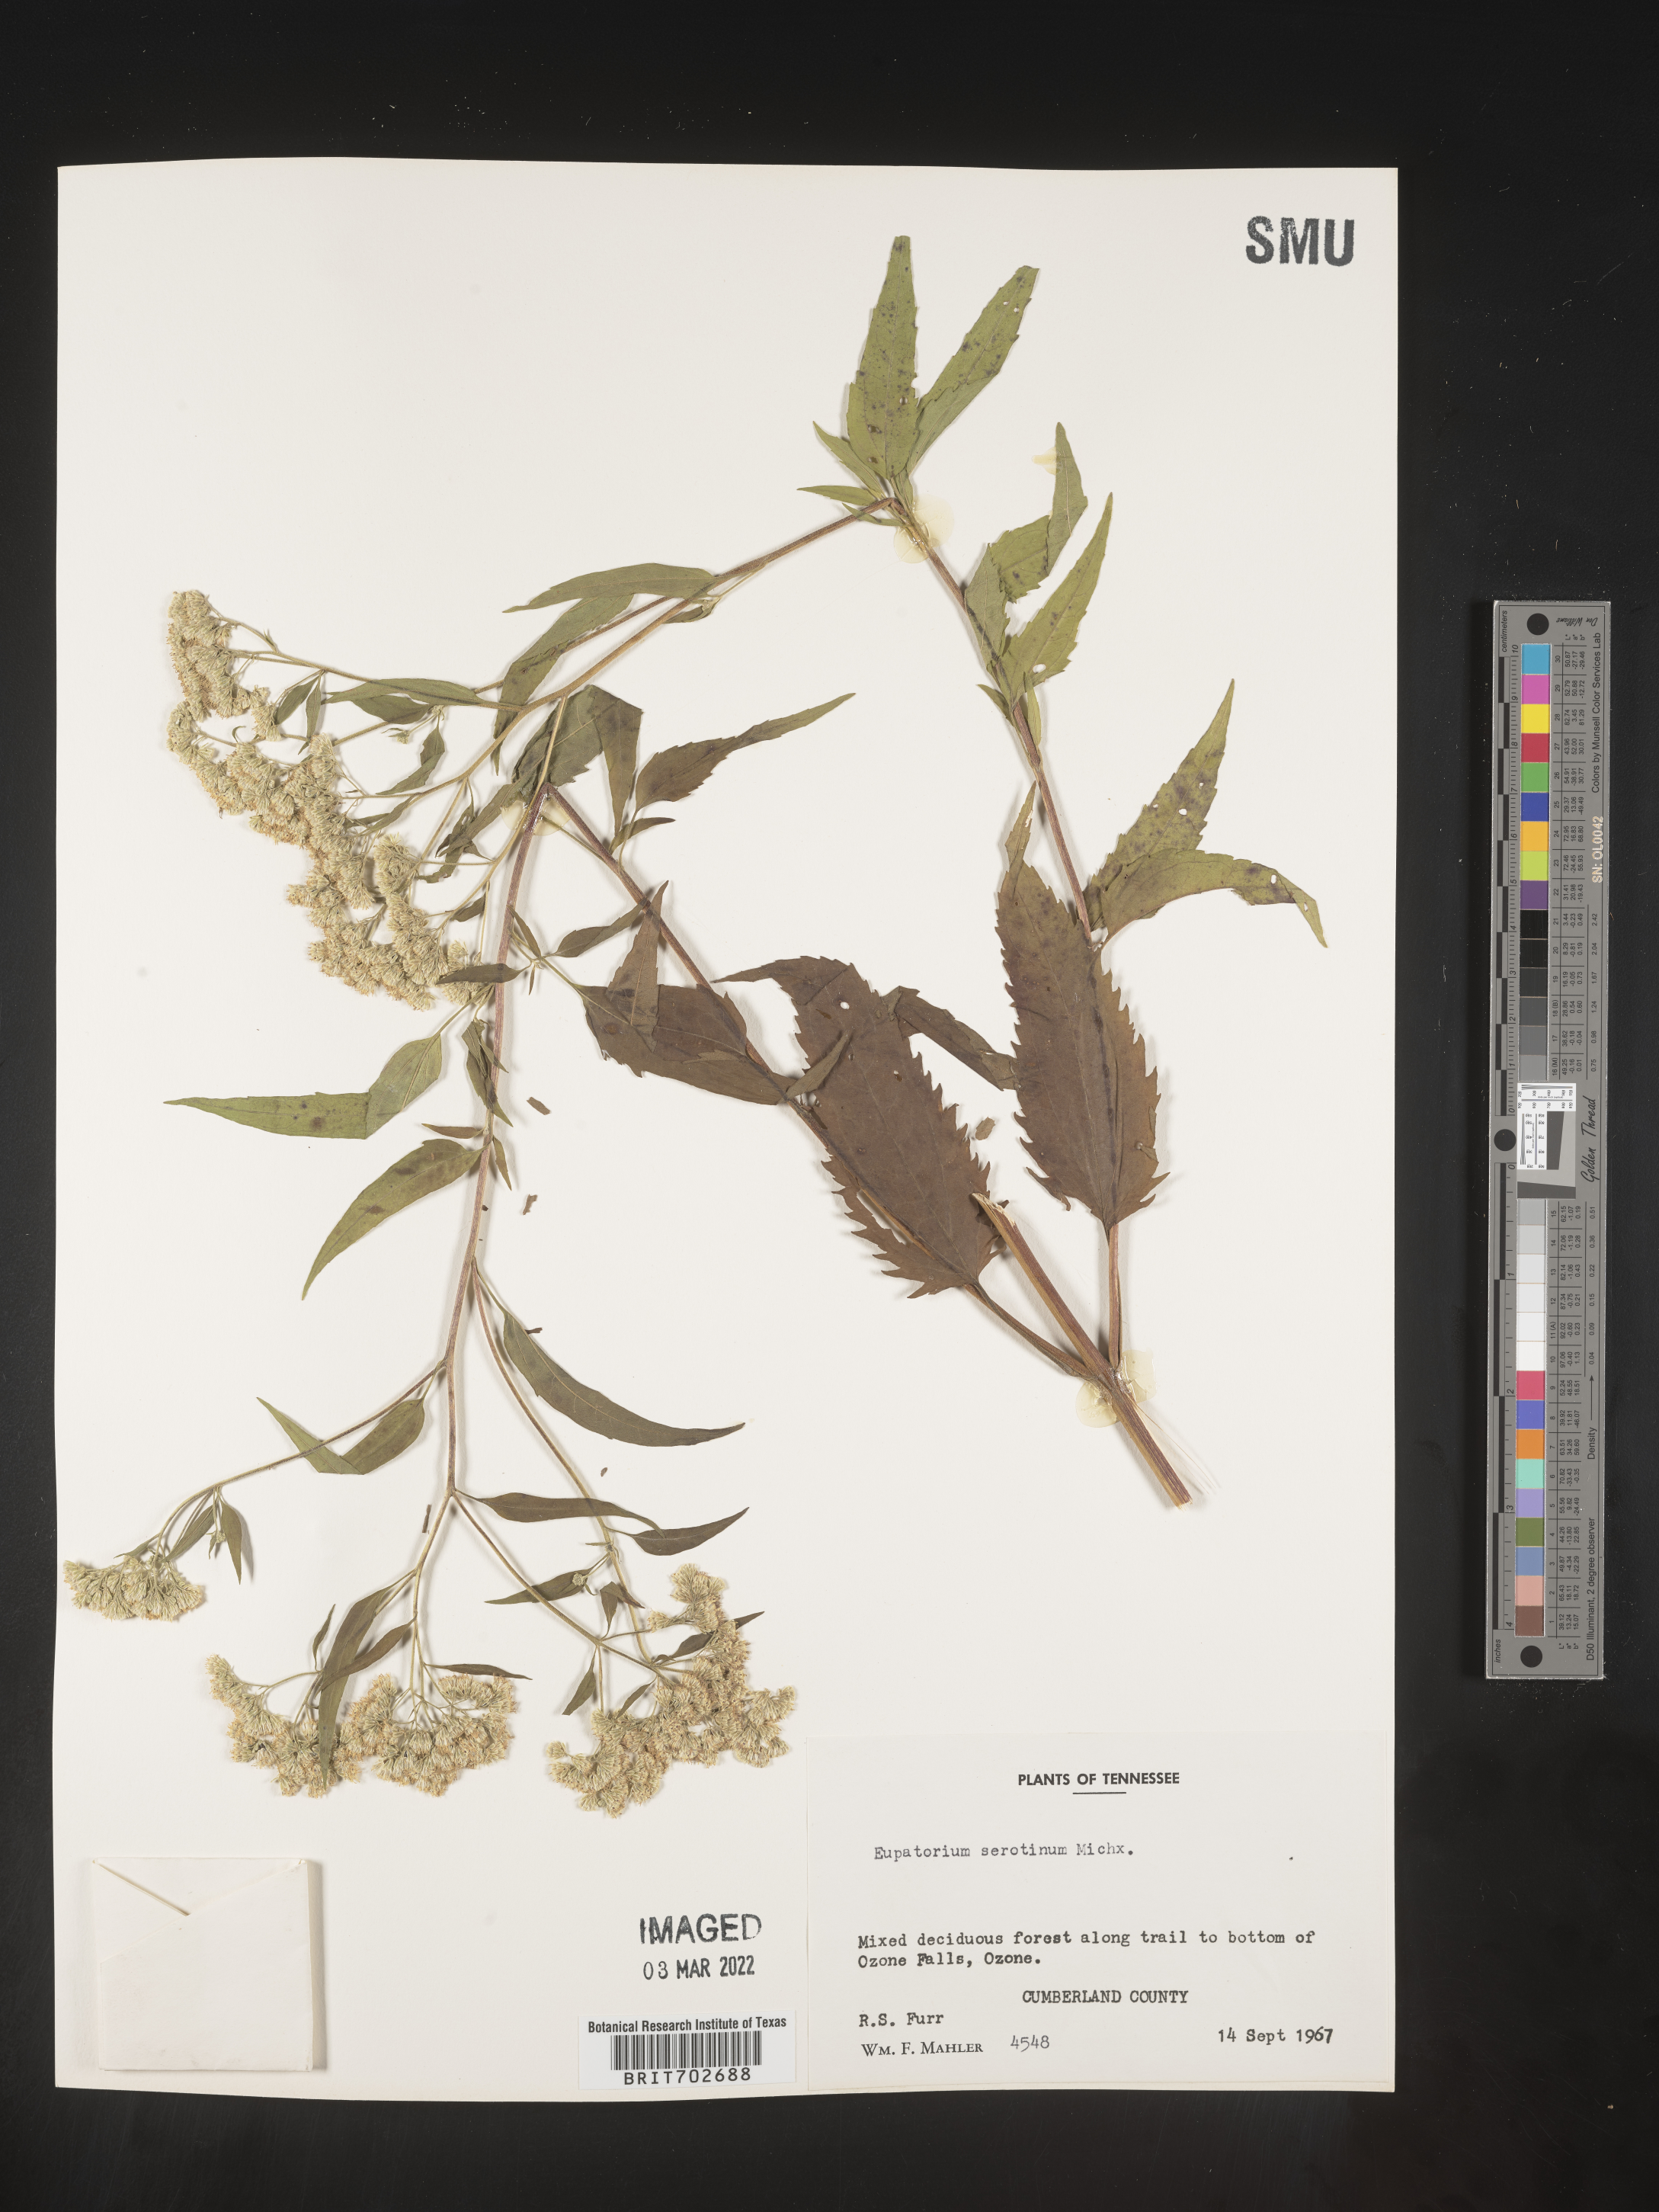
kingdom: Plantae
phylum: Tracheophyta
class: Magnoliopsida
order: Asterales
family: Asteraceae
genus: Eupatorium
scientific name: Eupatorium serotinum
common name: Late boneset
